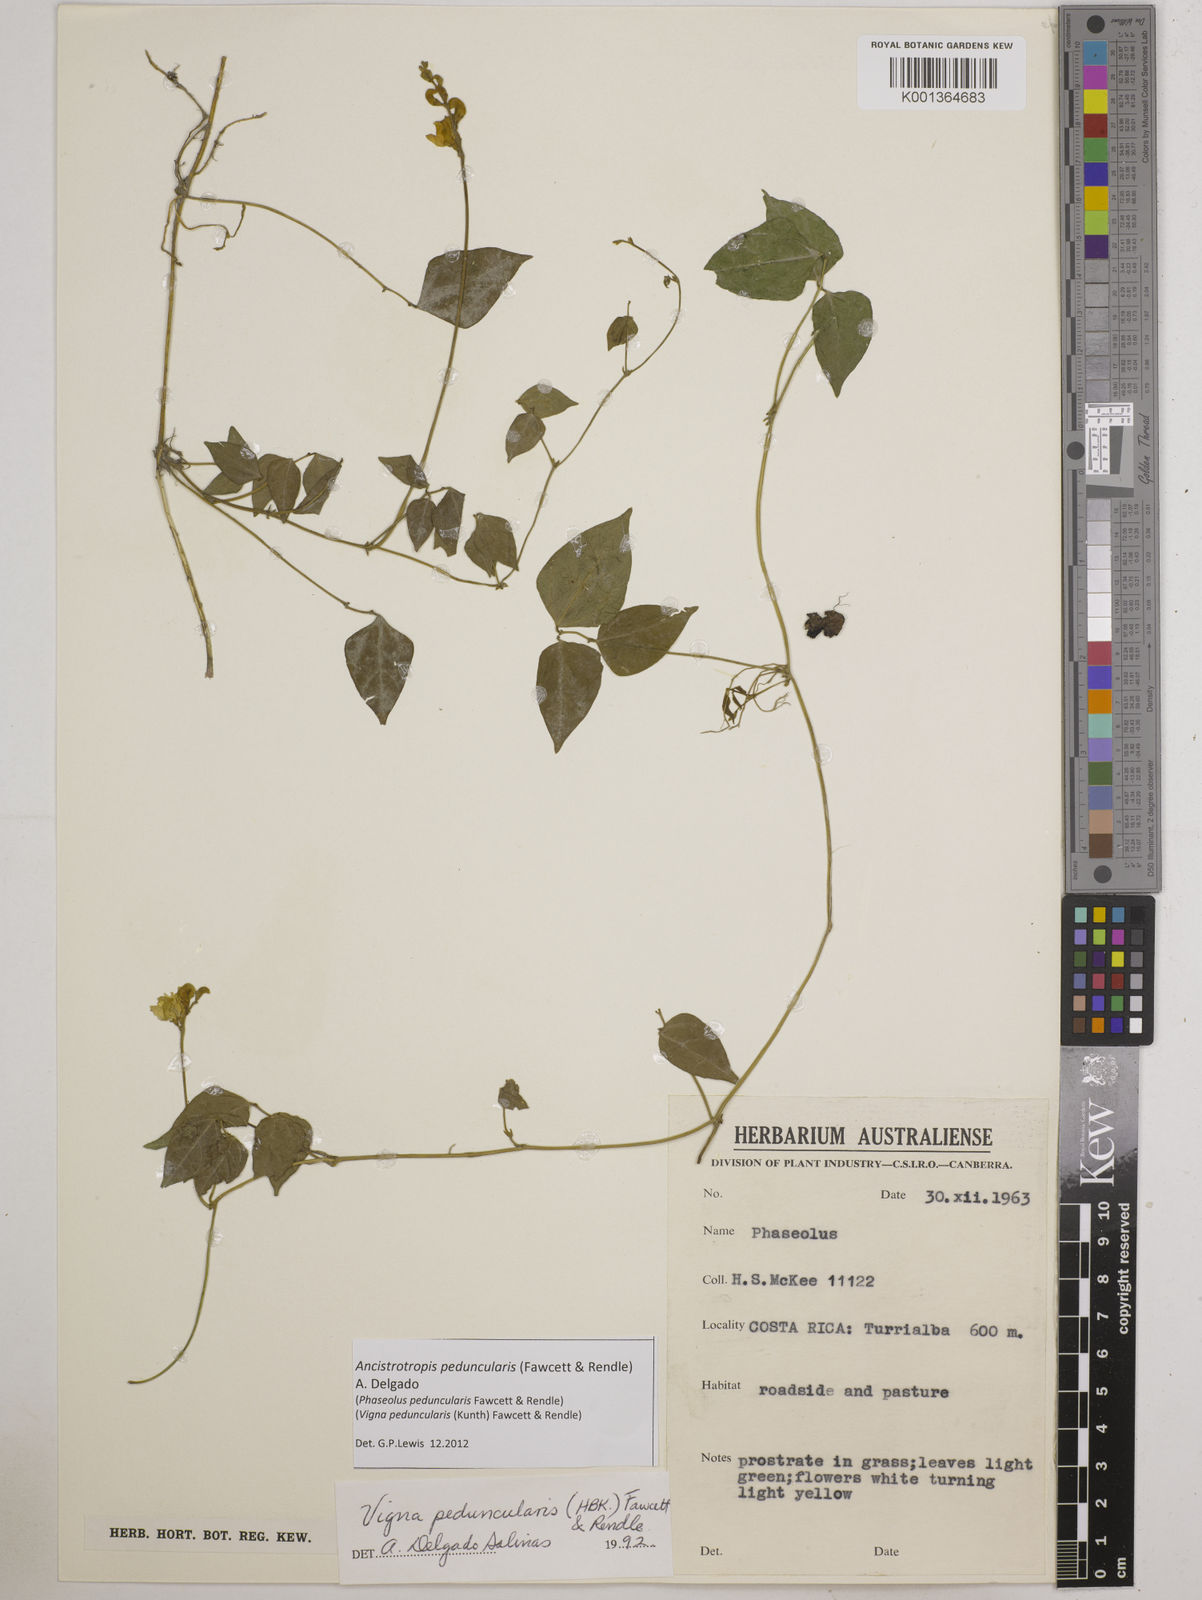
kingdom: Plantae
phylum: Tracheophyta
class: Magnoliopsida
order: Fabales
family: Fabaceae
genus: Ancistrotropis
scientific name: Ancistrotropis peduncularis
